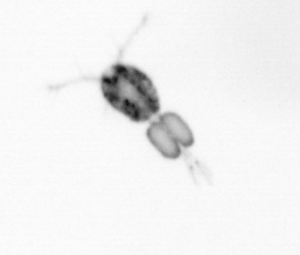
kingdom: Animalia
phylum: Arthropoda
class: Copepoda
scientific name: Copepoda
